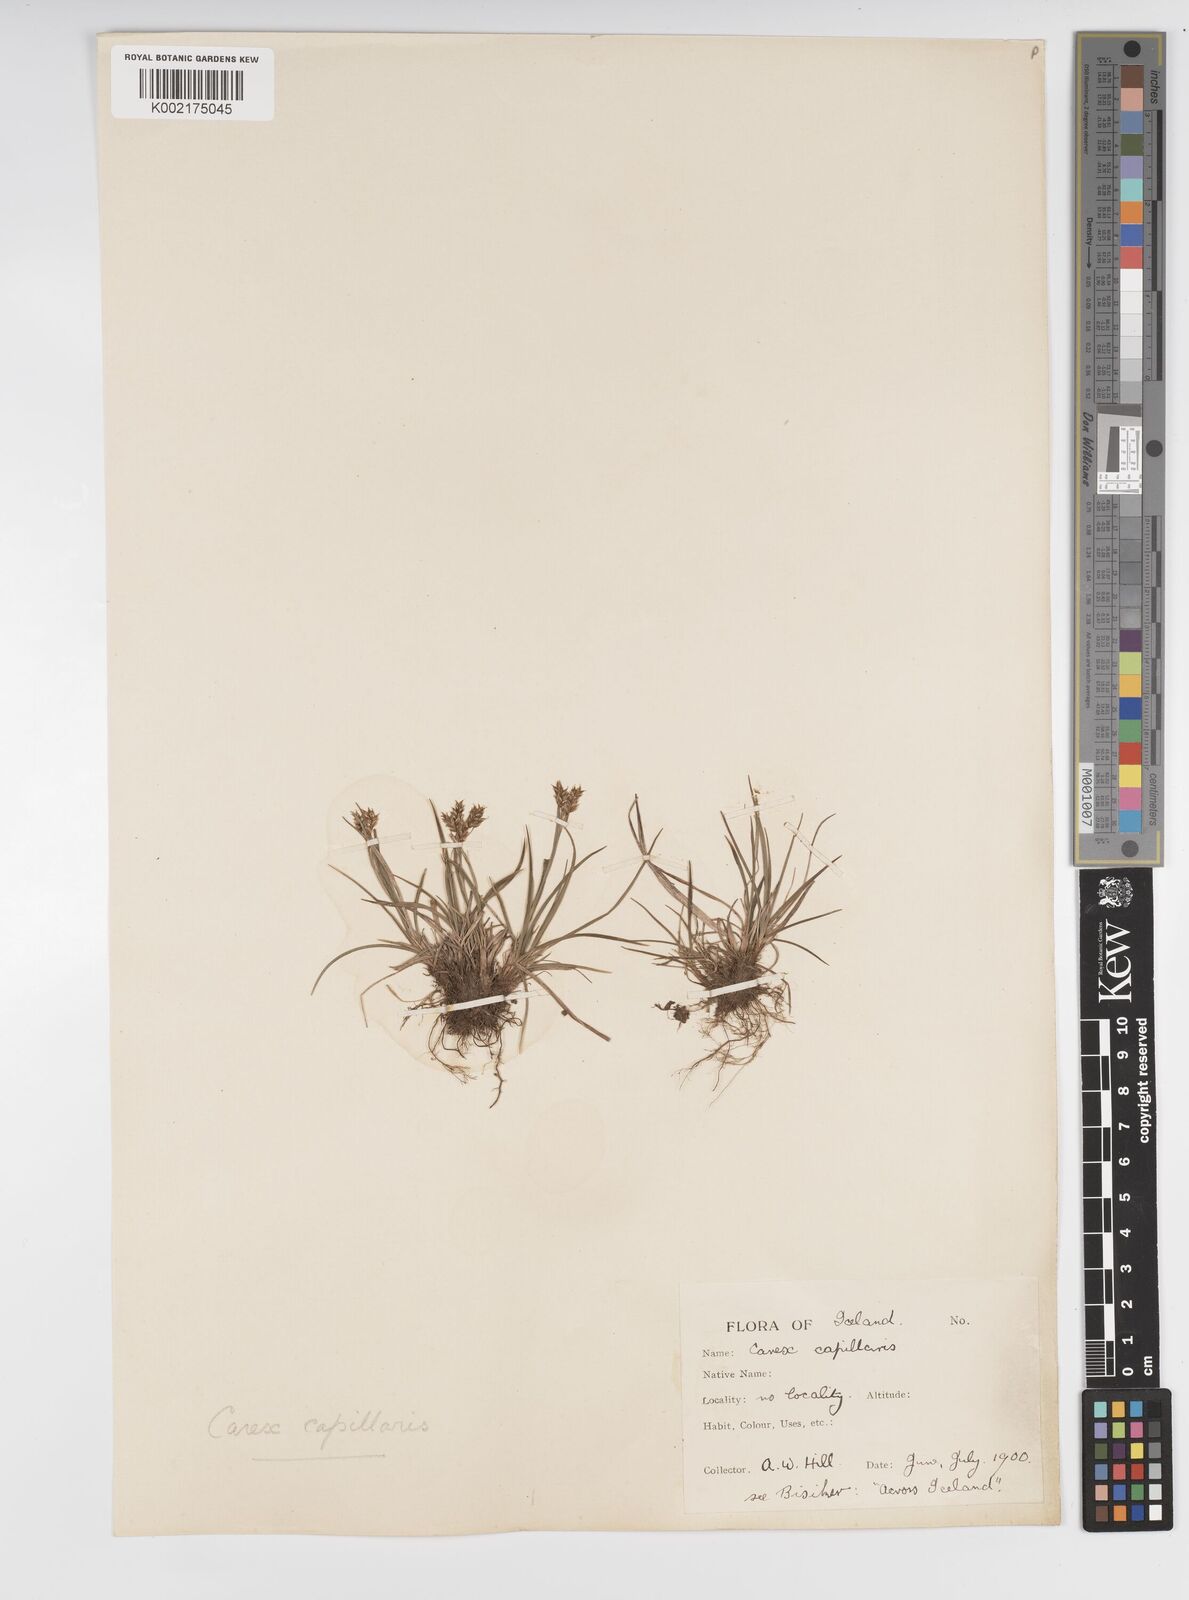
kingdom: Plantae
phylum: Tracheophyta
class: Liliopsida
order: Poales
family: Cyperaceae
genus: Carex
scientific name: Carex capillaris
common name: Hair sedge
